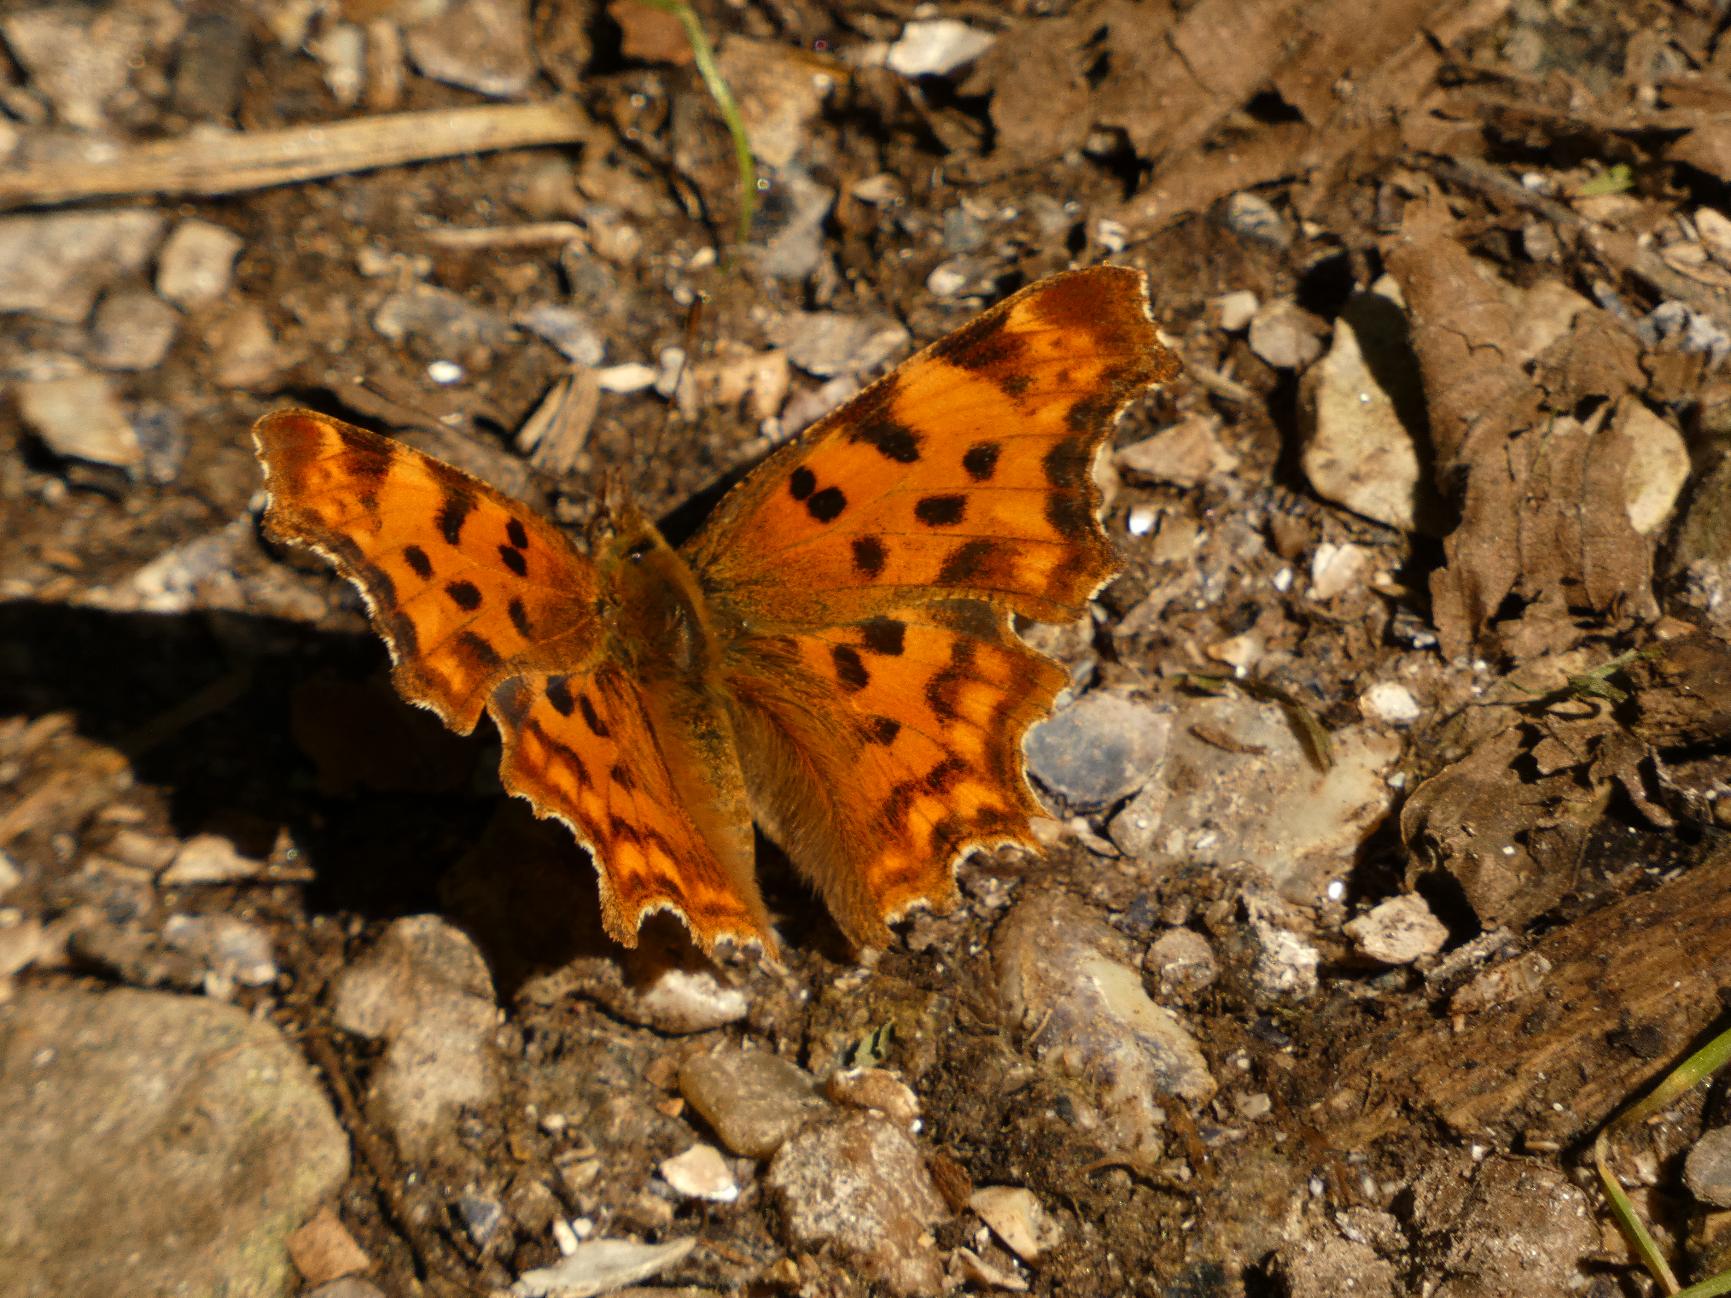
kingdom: Animalia
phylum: Arthropoda
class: Insecta
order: Lepidoptera
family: Nymphalidae
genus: Polygonia
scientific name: Polygonia c-album
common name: Det hvide C
